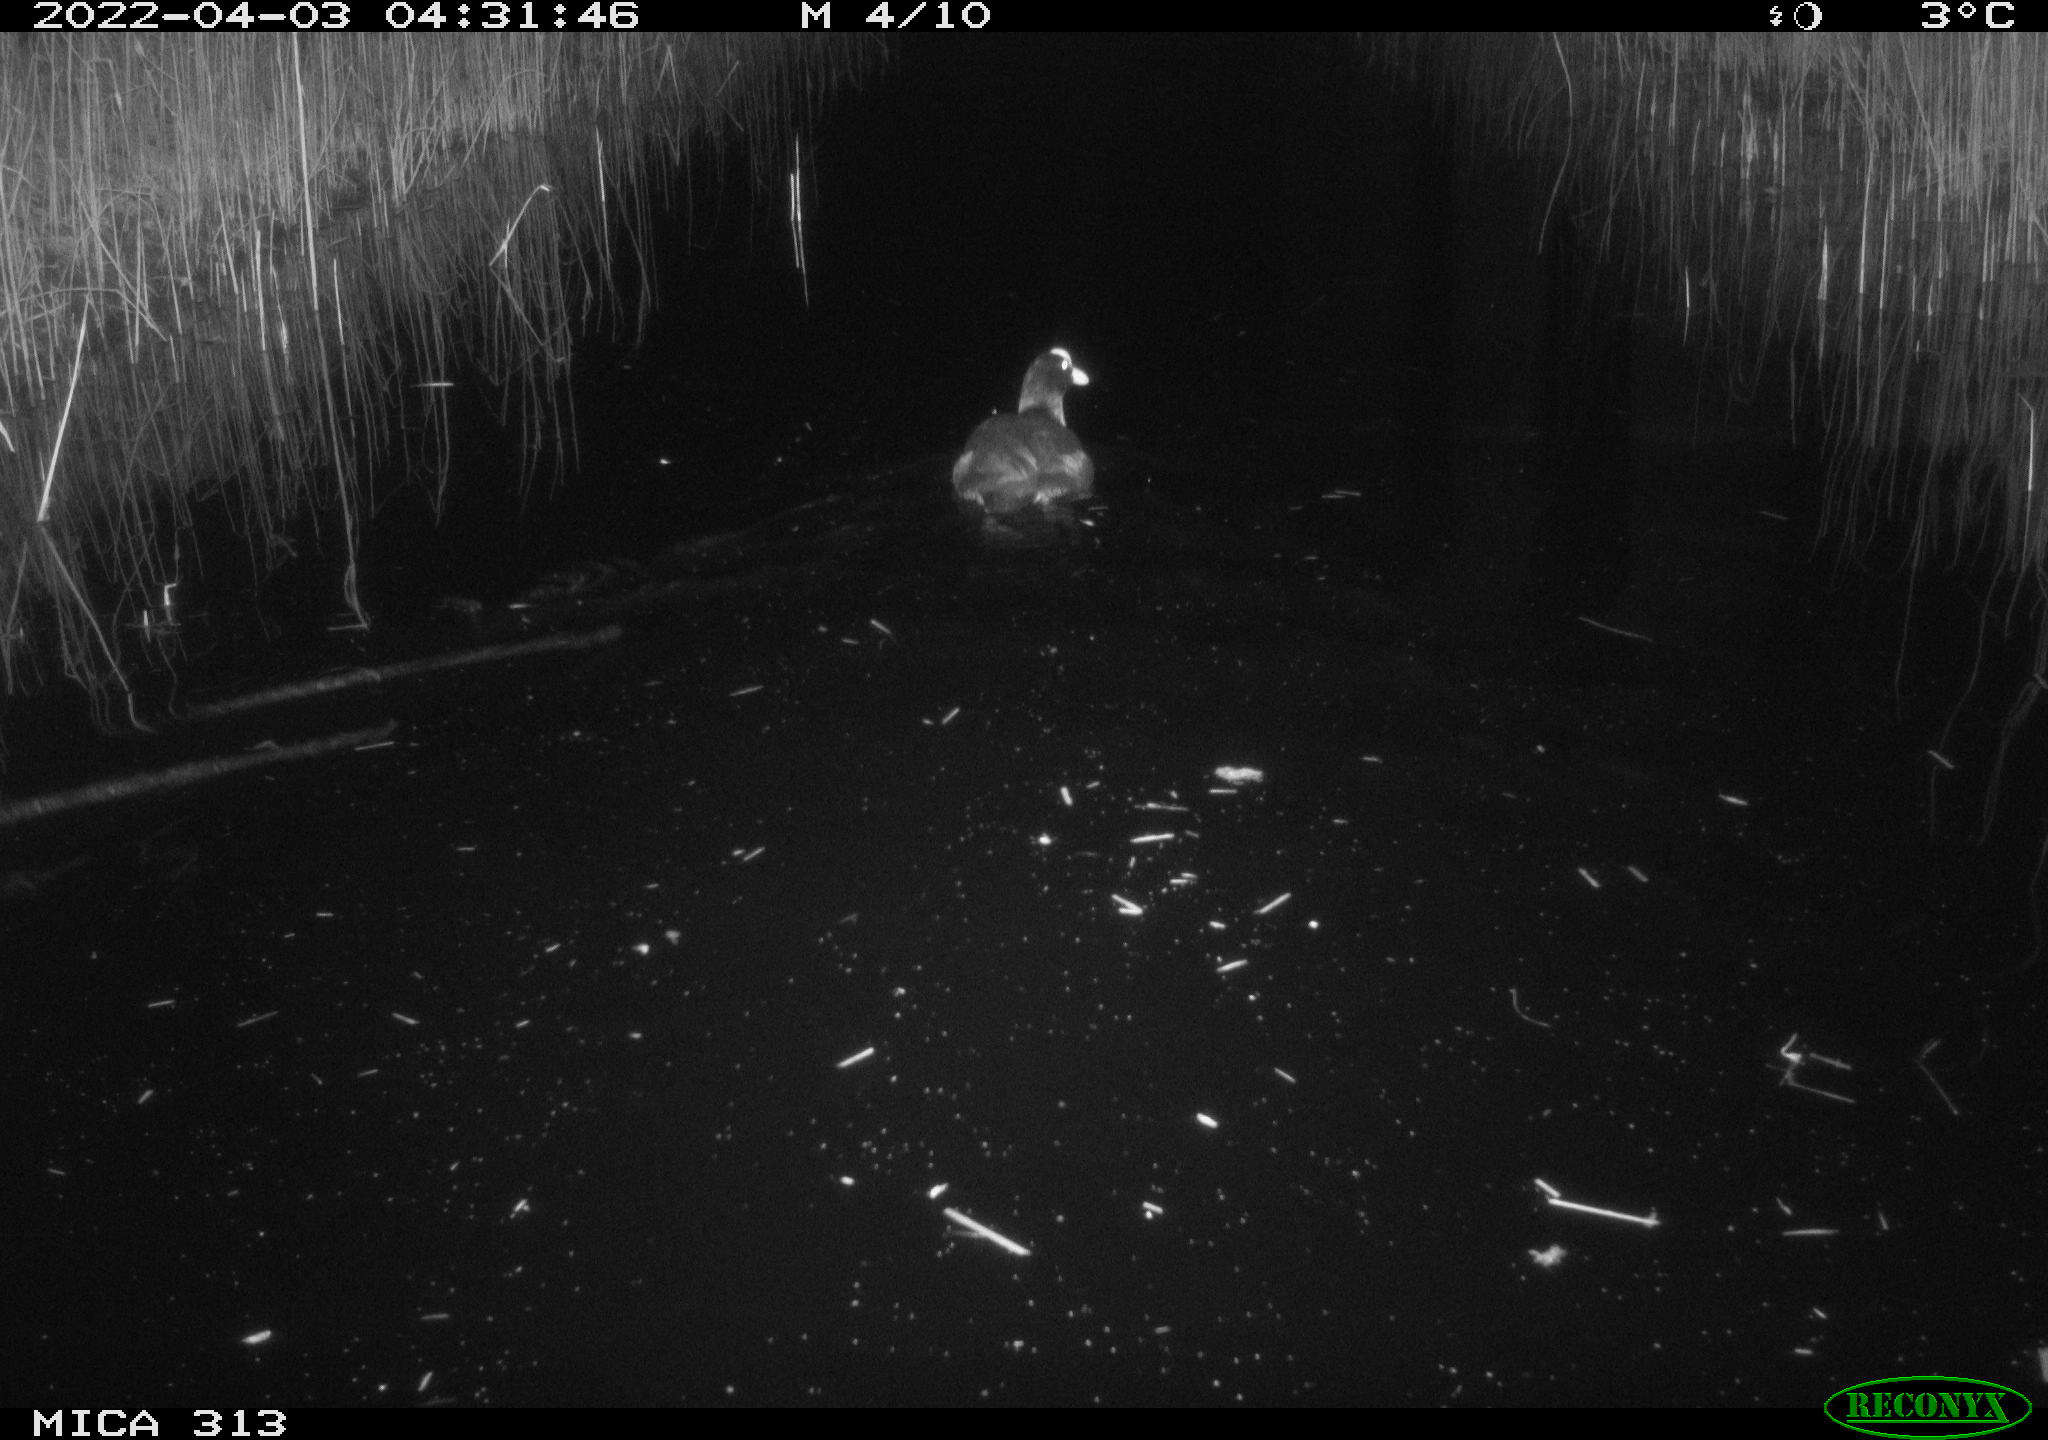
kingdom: Animalia
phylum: Chordata
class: Aves
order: Gruiformes
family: Rallidae
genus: Gallinula
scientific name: Gallinula chloropus
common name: Common moorhen
